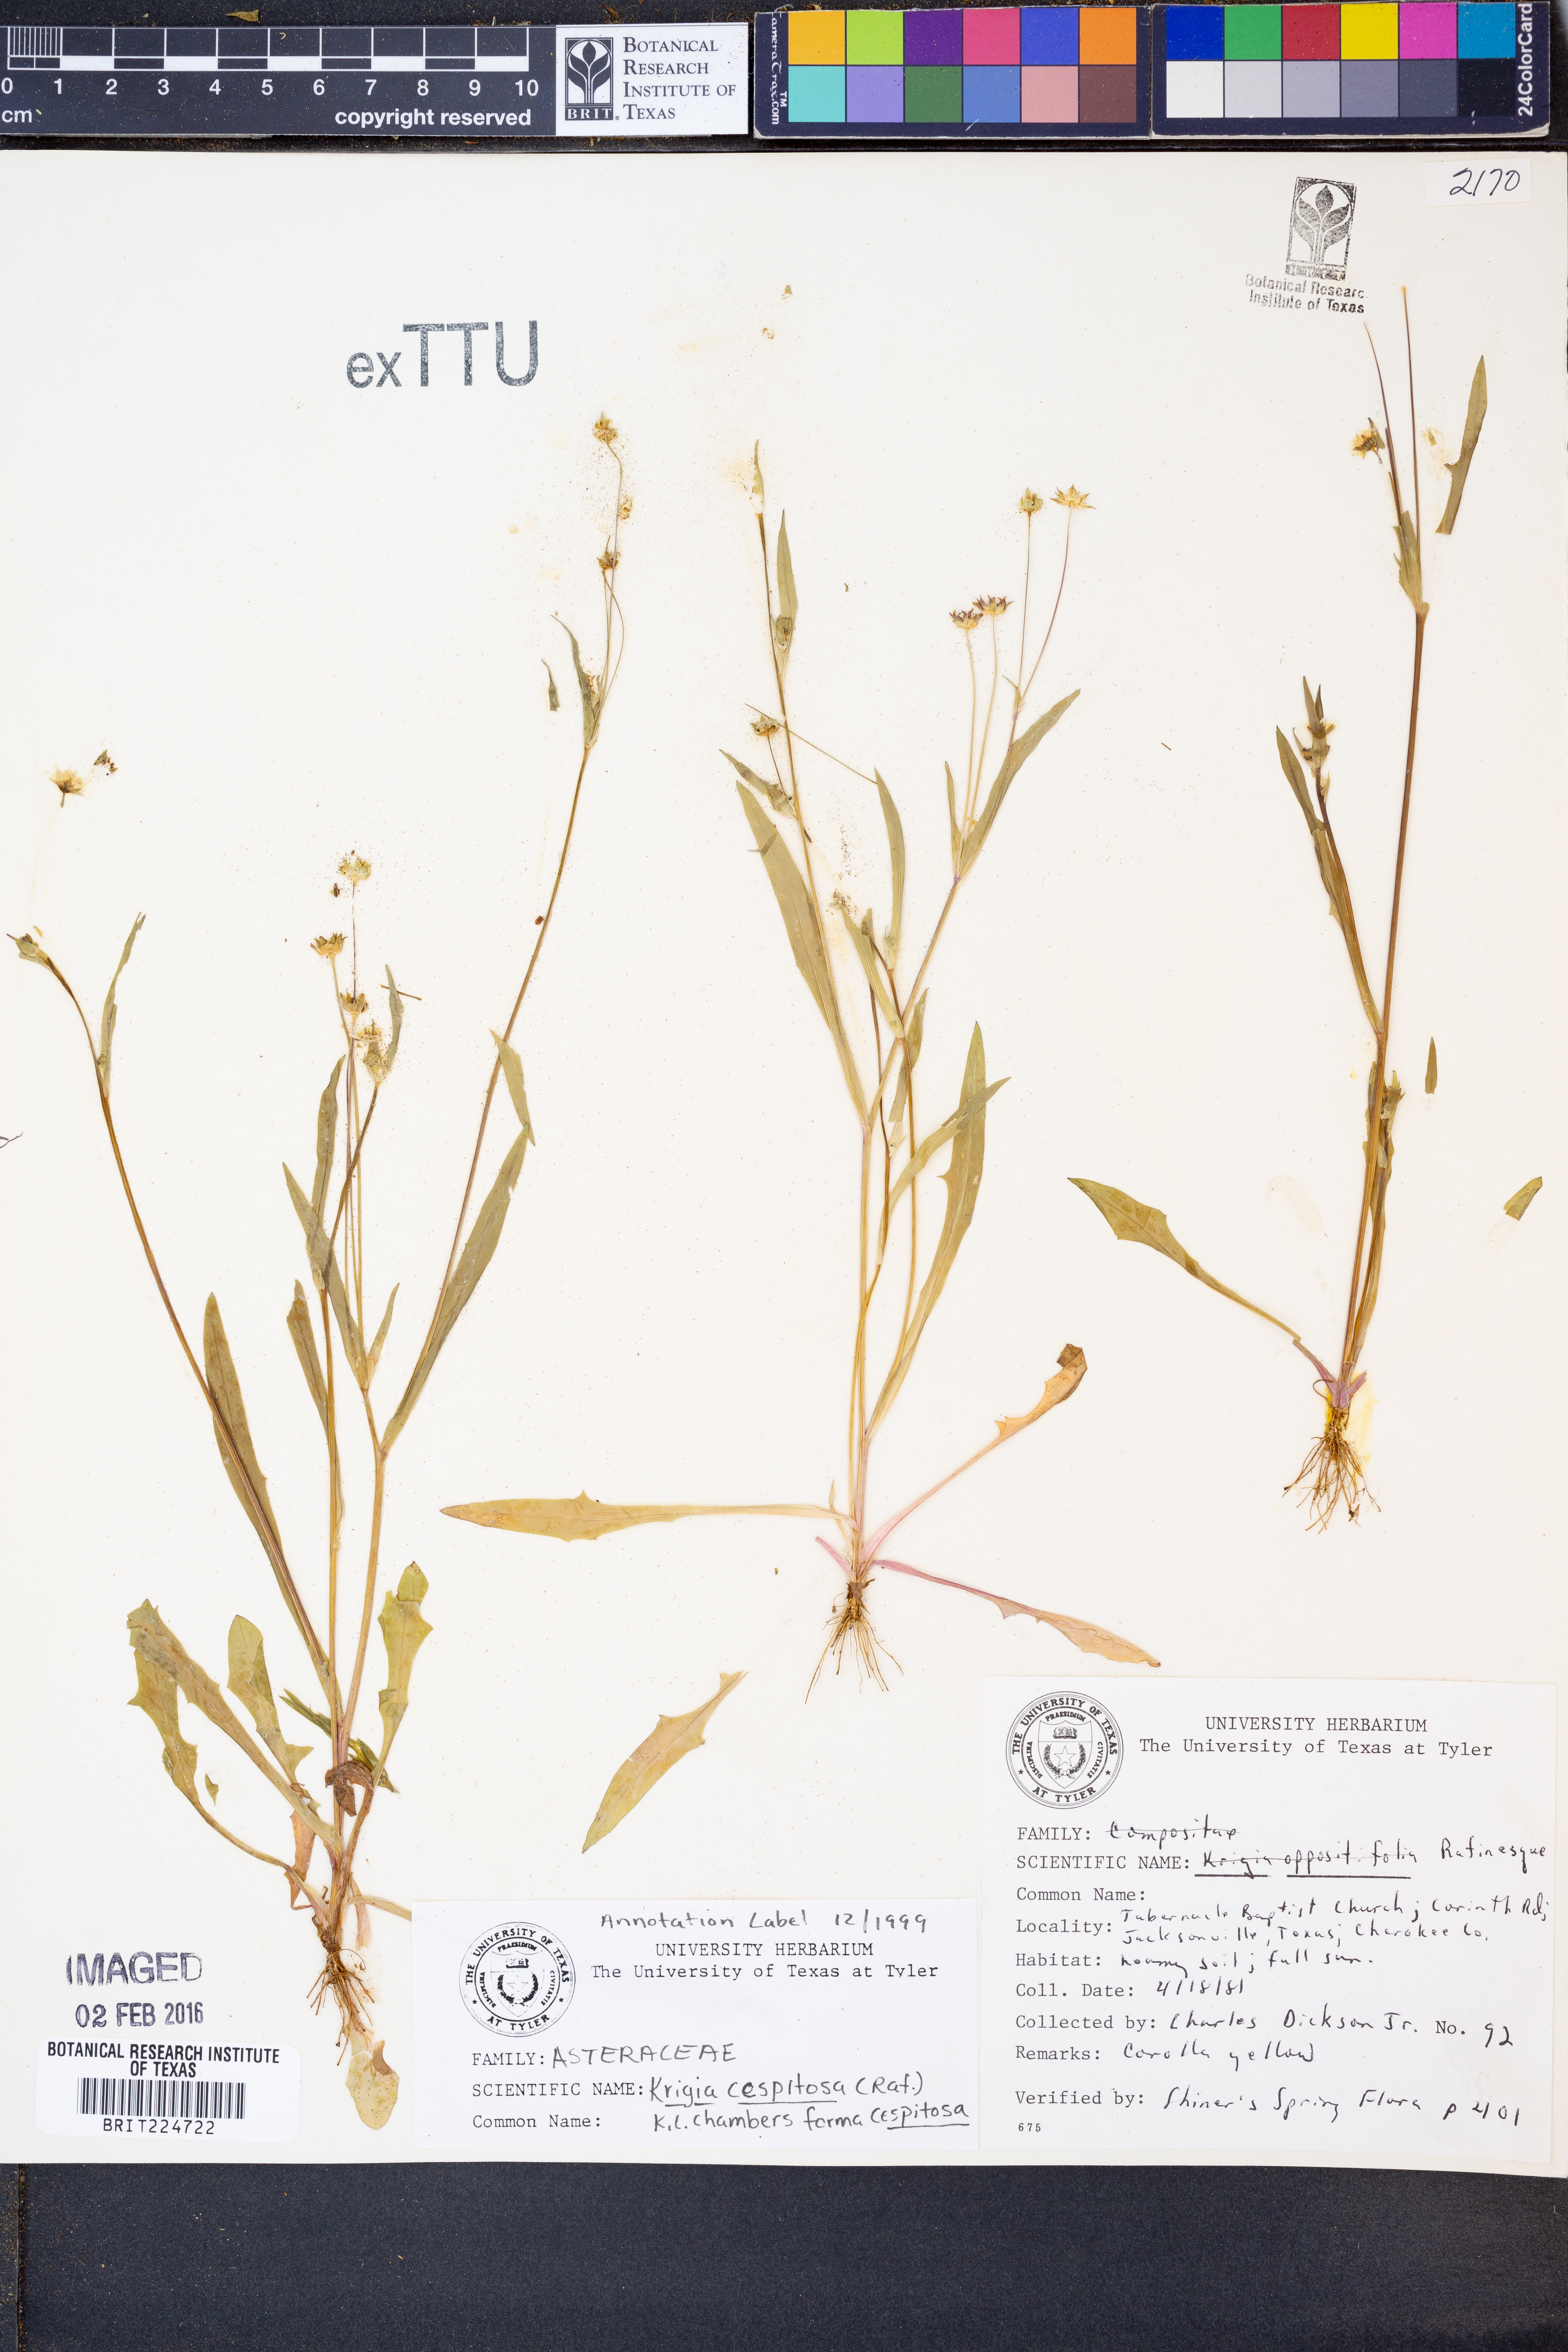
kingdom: Plantae
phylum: Tracheophyta
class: Magnoliopsida
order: Asterales
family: Asteraceae
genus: Krigia
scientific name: Krigia cespitosa
